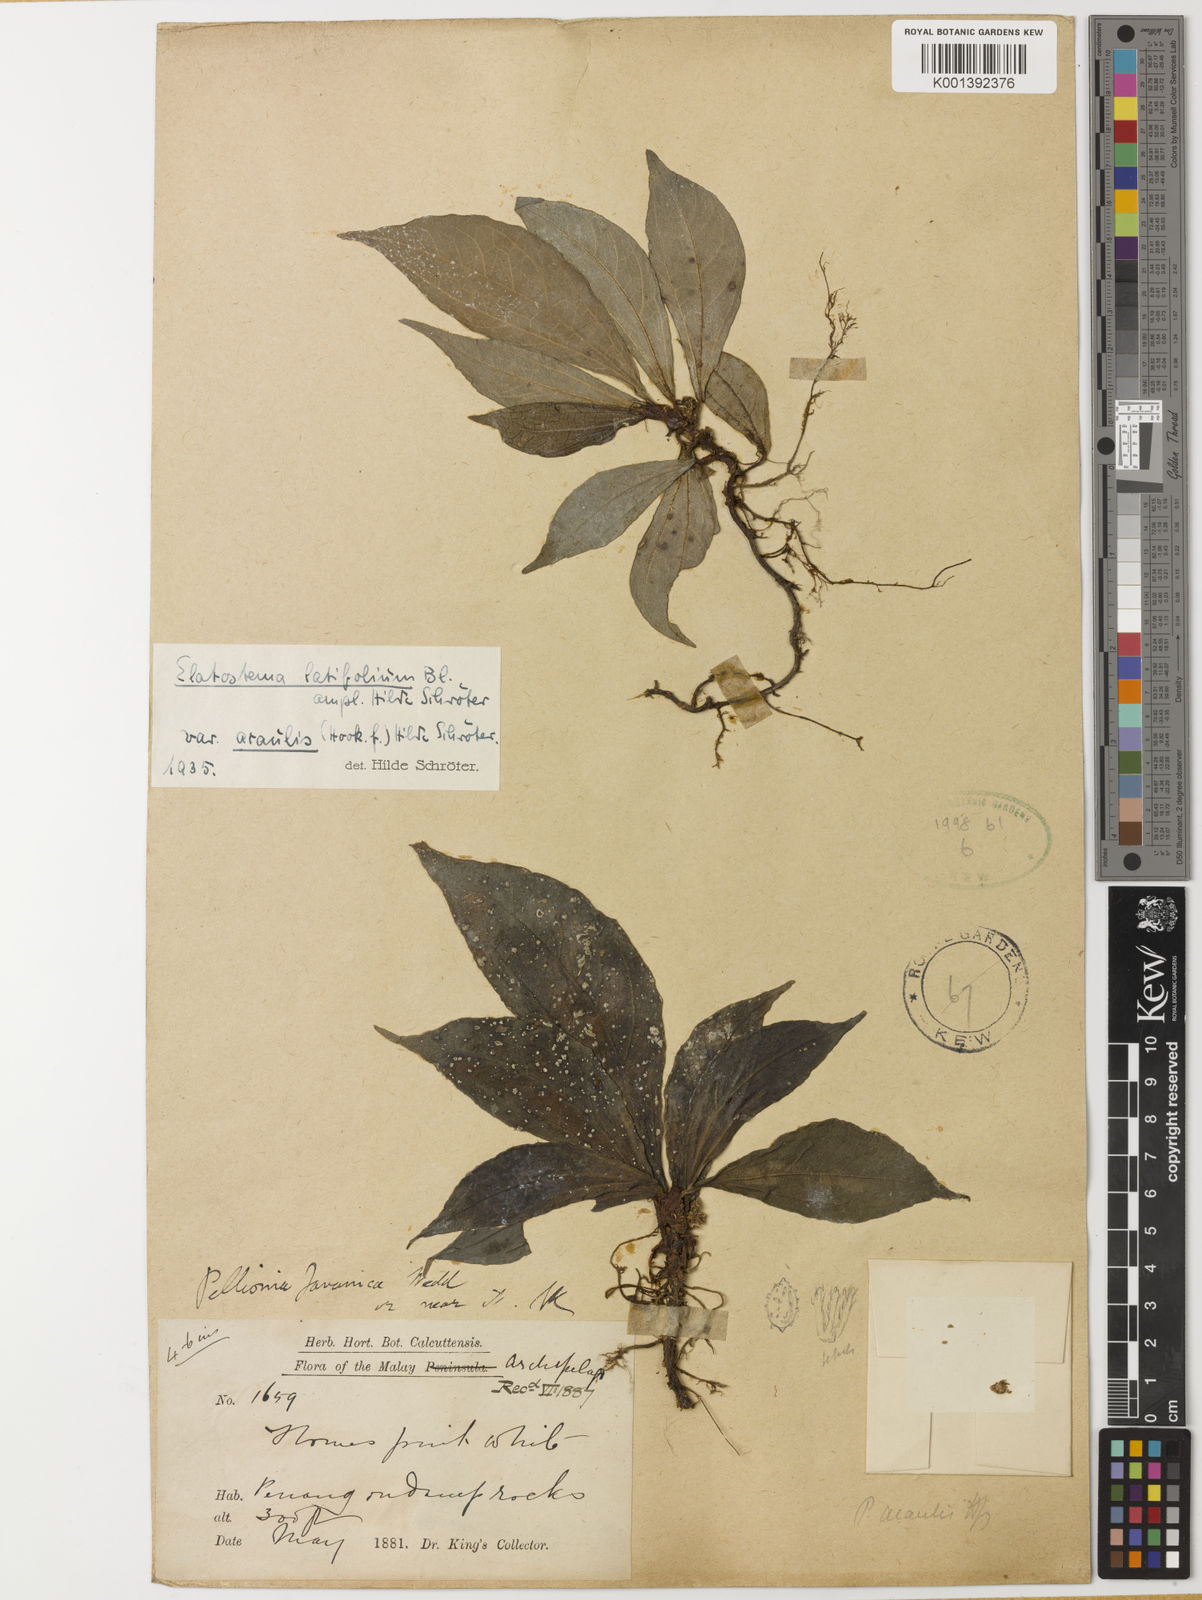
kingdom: Plantae
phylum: Tracheophyta
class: Magnoliopsida
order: Rosales
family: Urticaceae
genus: Elatostema
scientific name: Elatostema latifolium
